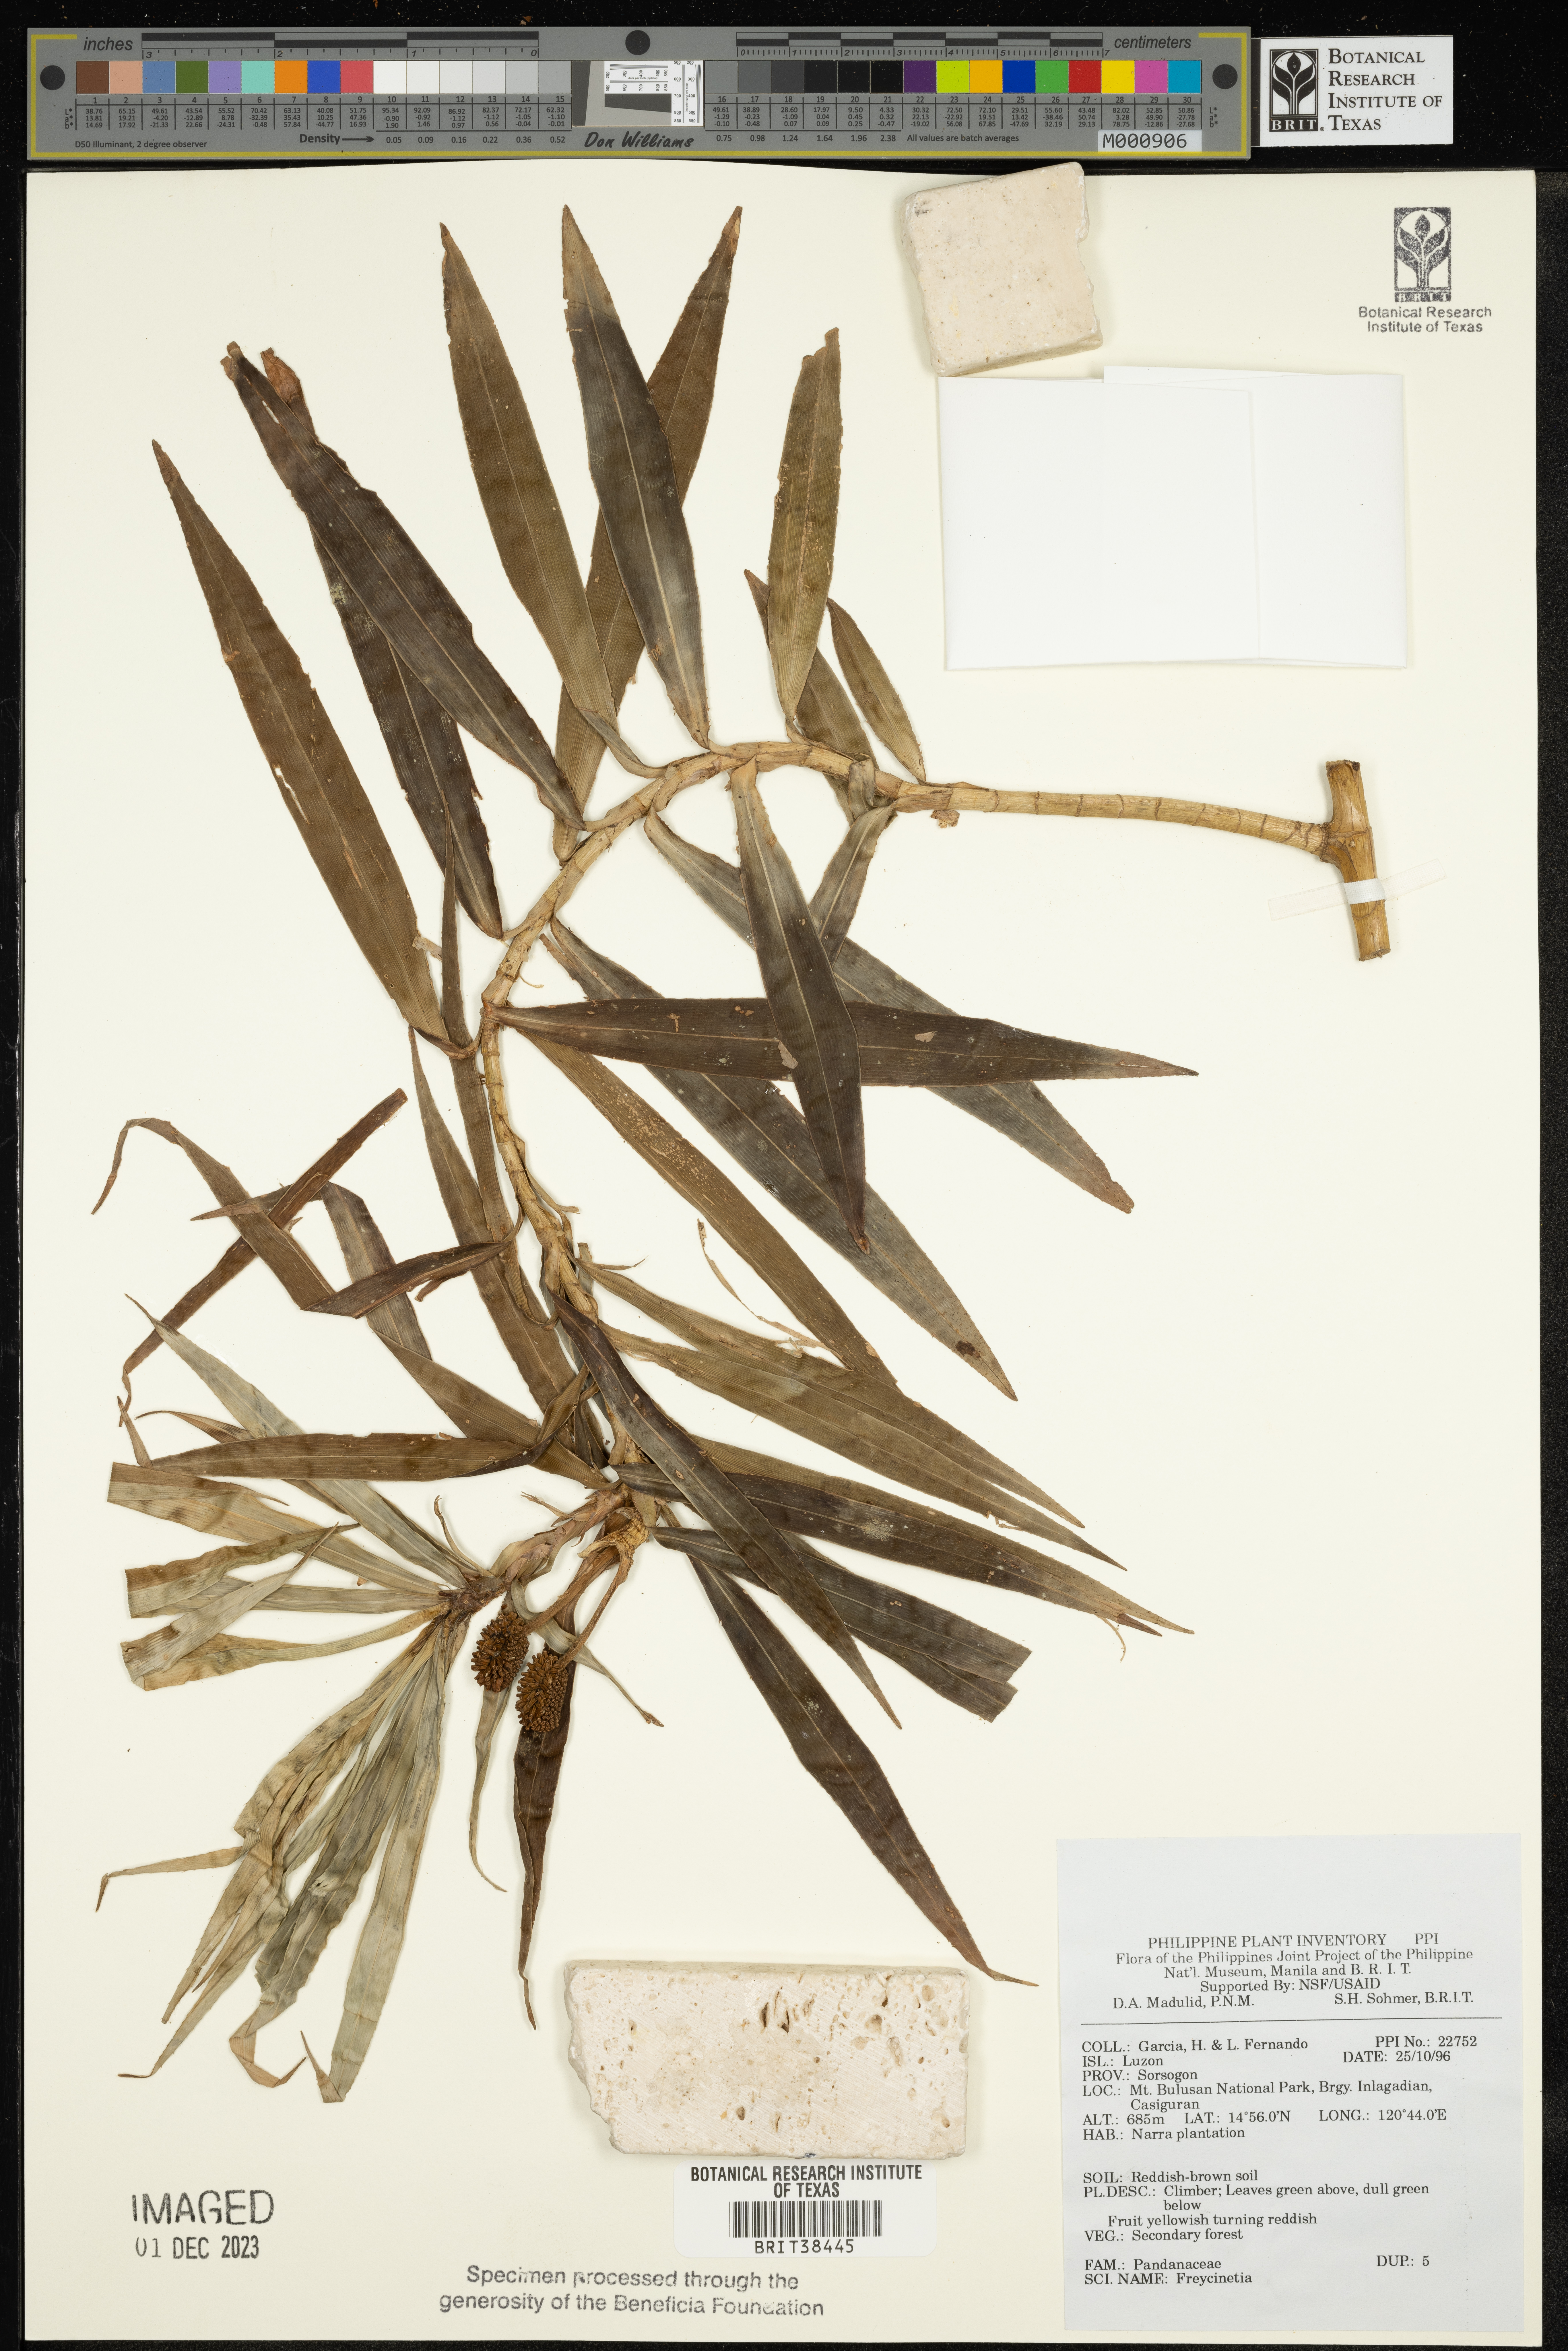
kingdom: Plantae
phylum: Tracheophyta
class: Liliopsida
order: Pandanales
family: Pandanaceae
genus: Freycinetia
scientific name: Freycinetia
